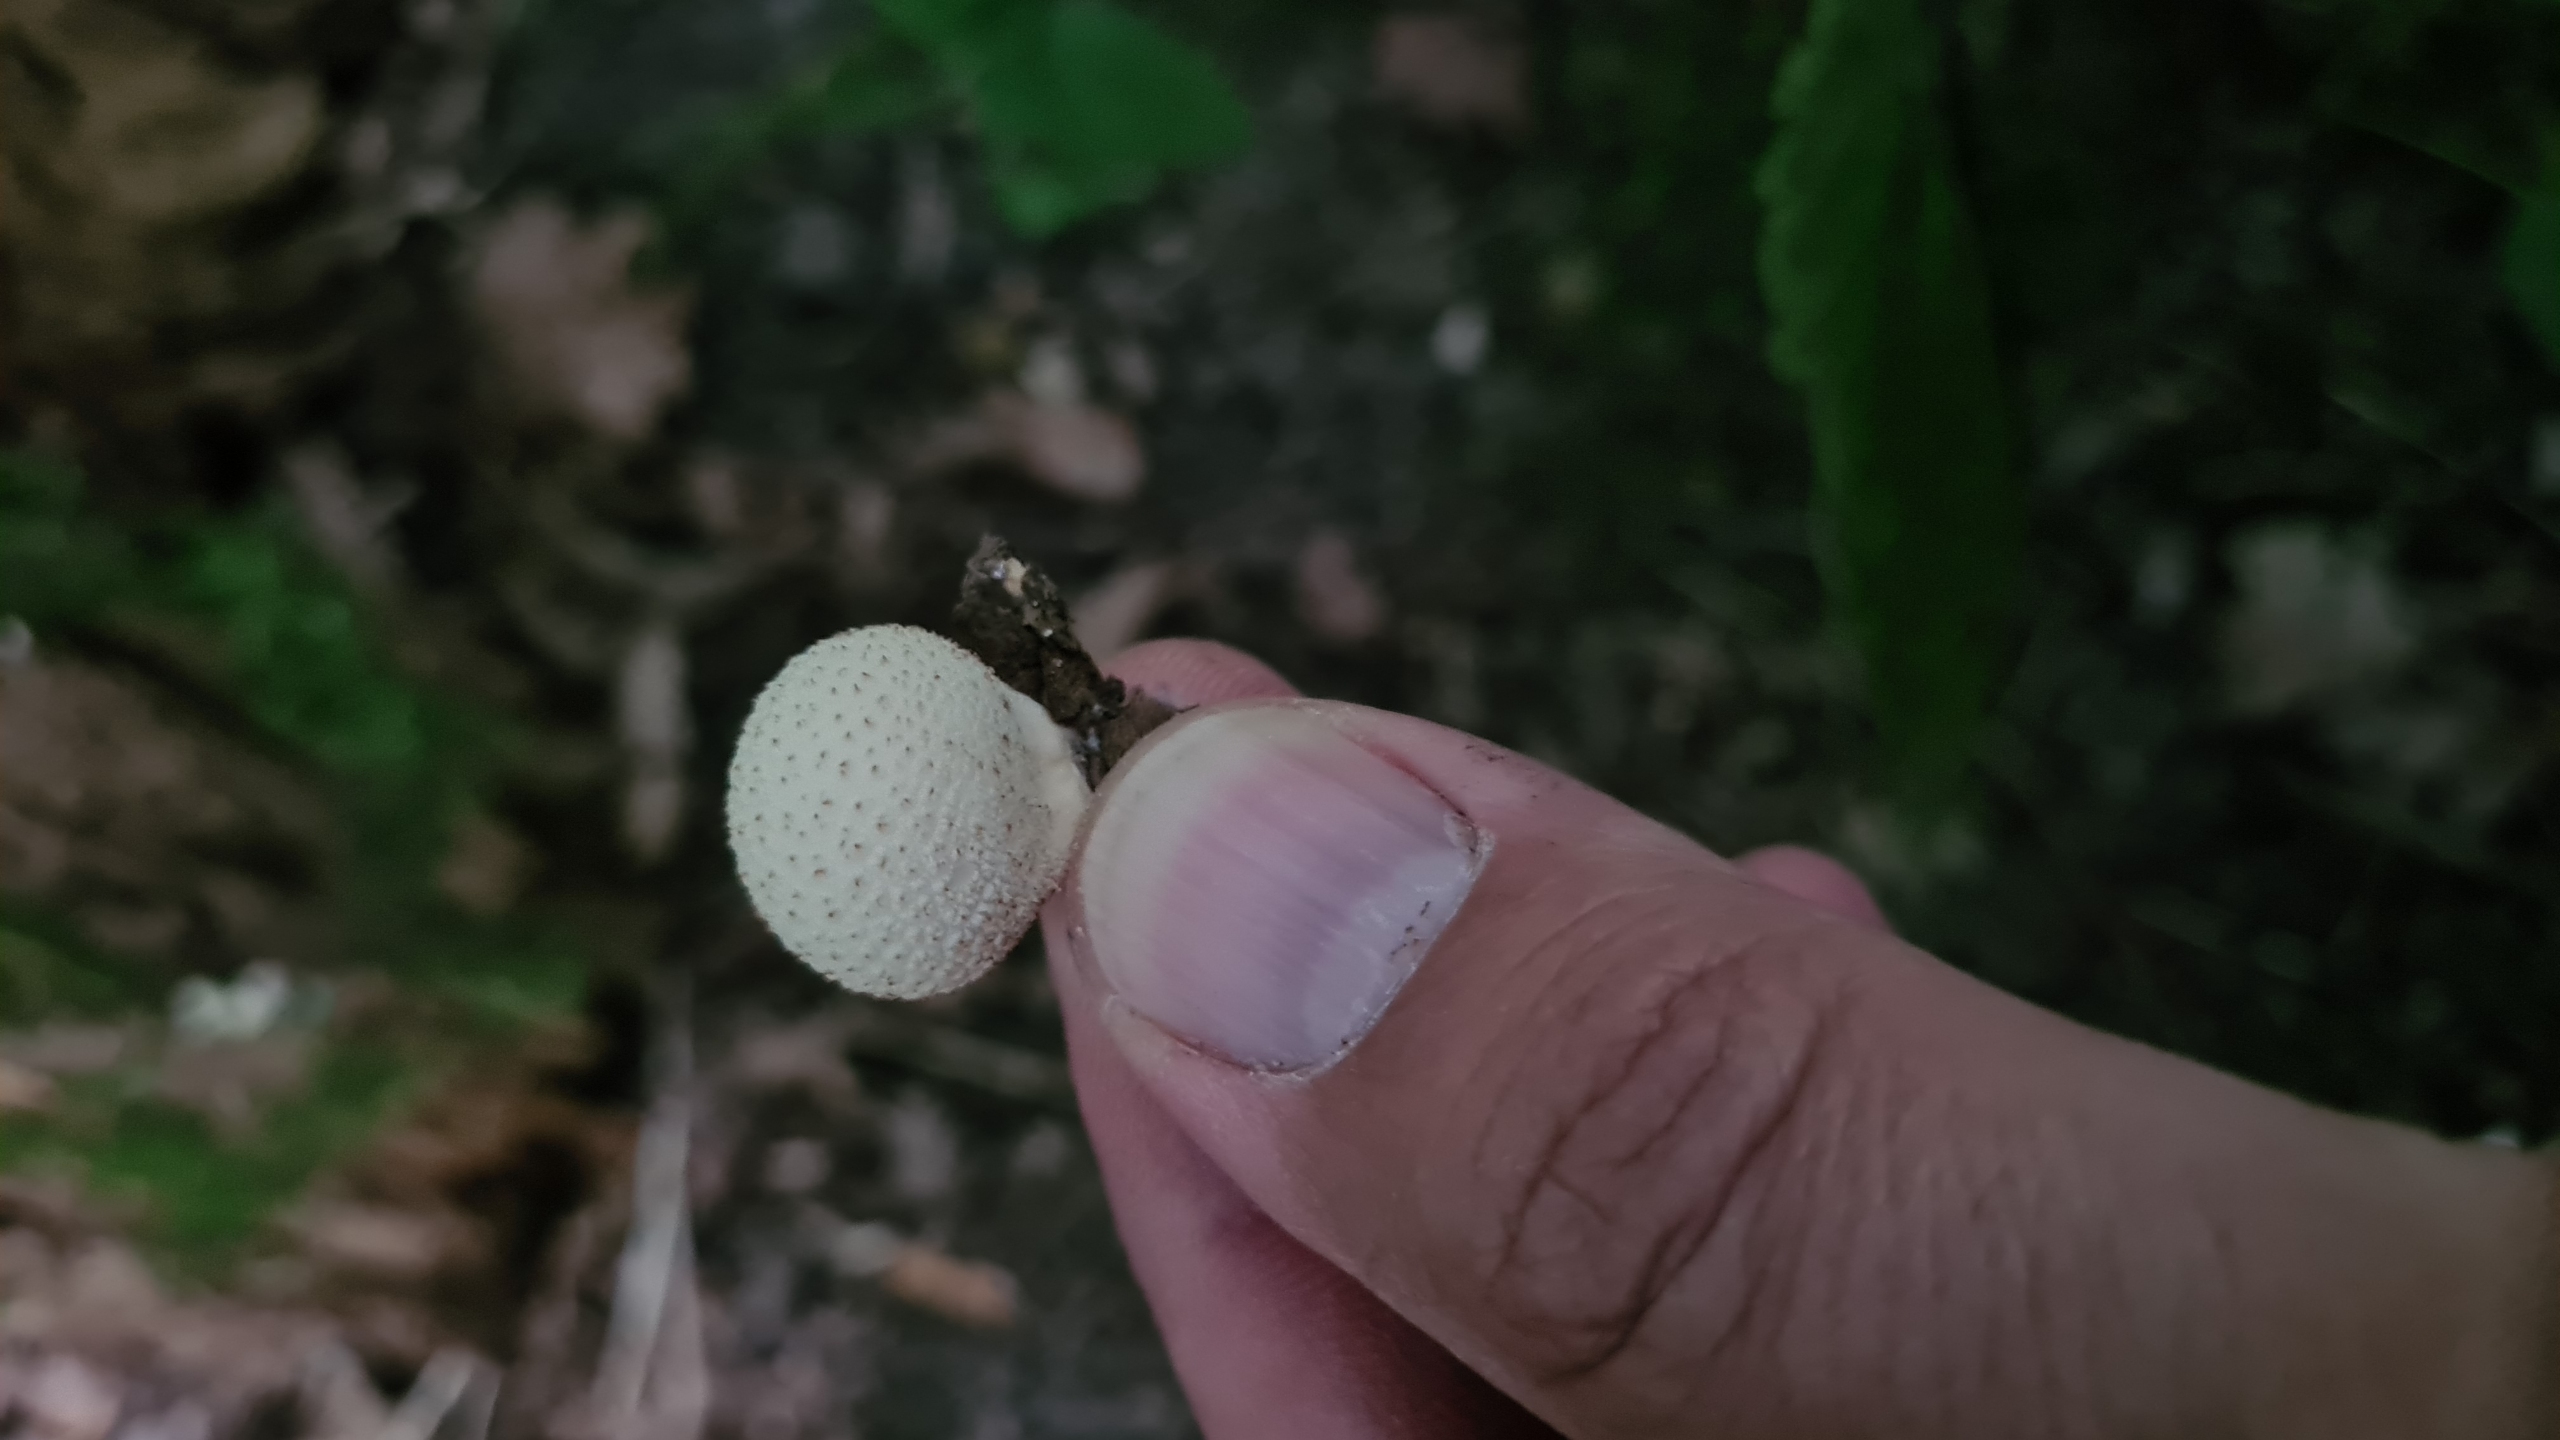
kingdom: Fungi
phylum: Basidiomycota
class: Agaricomycetes
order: Agaricales
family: Lycoperdaceae
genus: Apioperdon
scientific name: Apioperdon pyriforme
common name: Pære-støvbold
